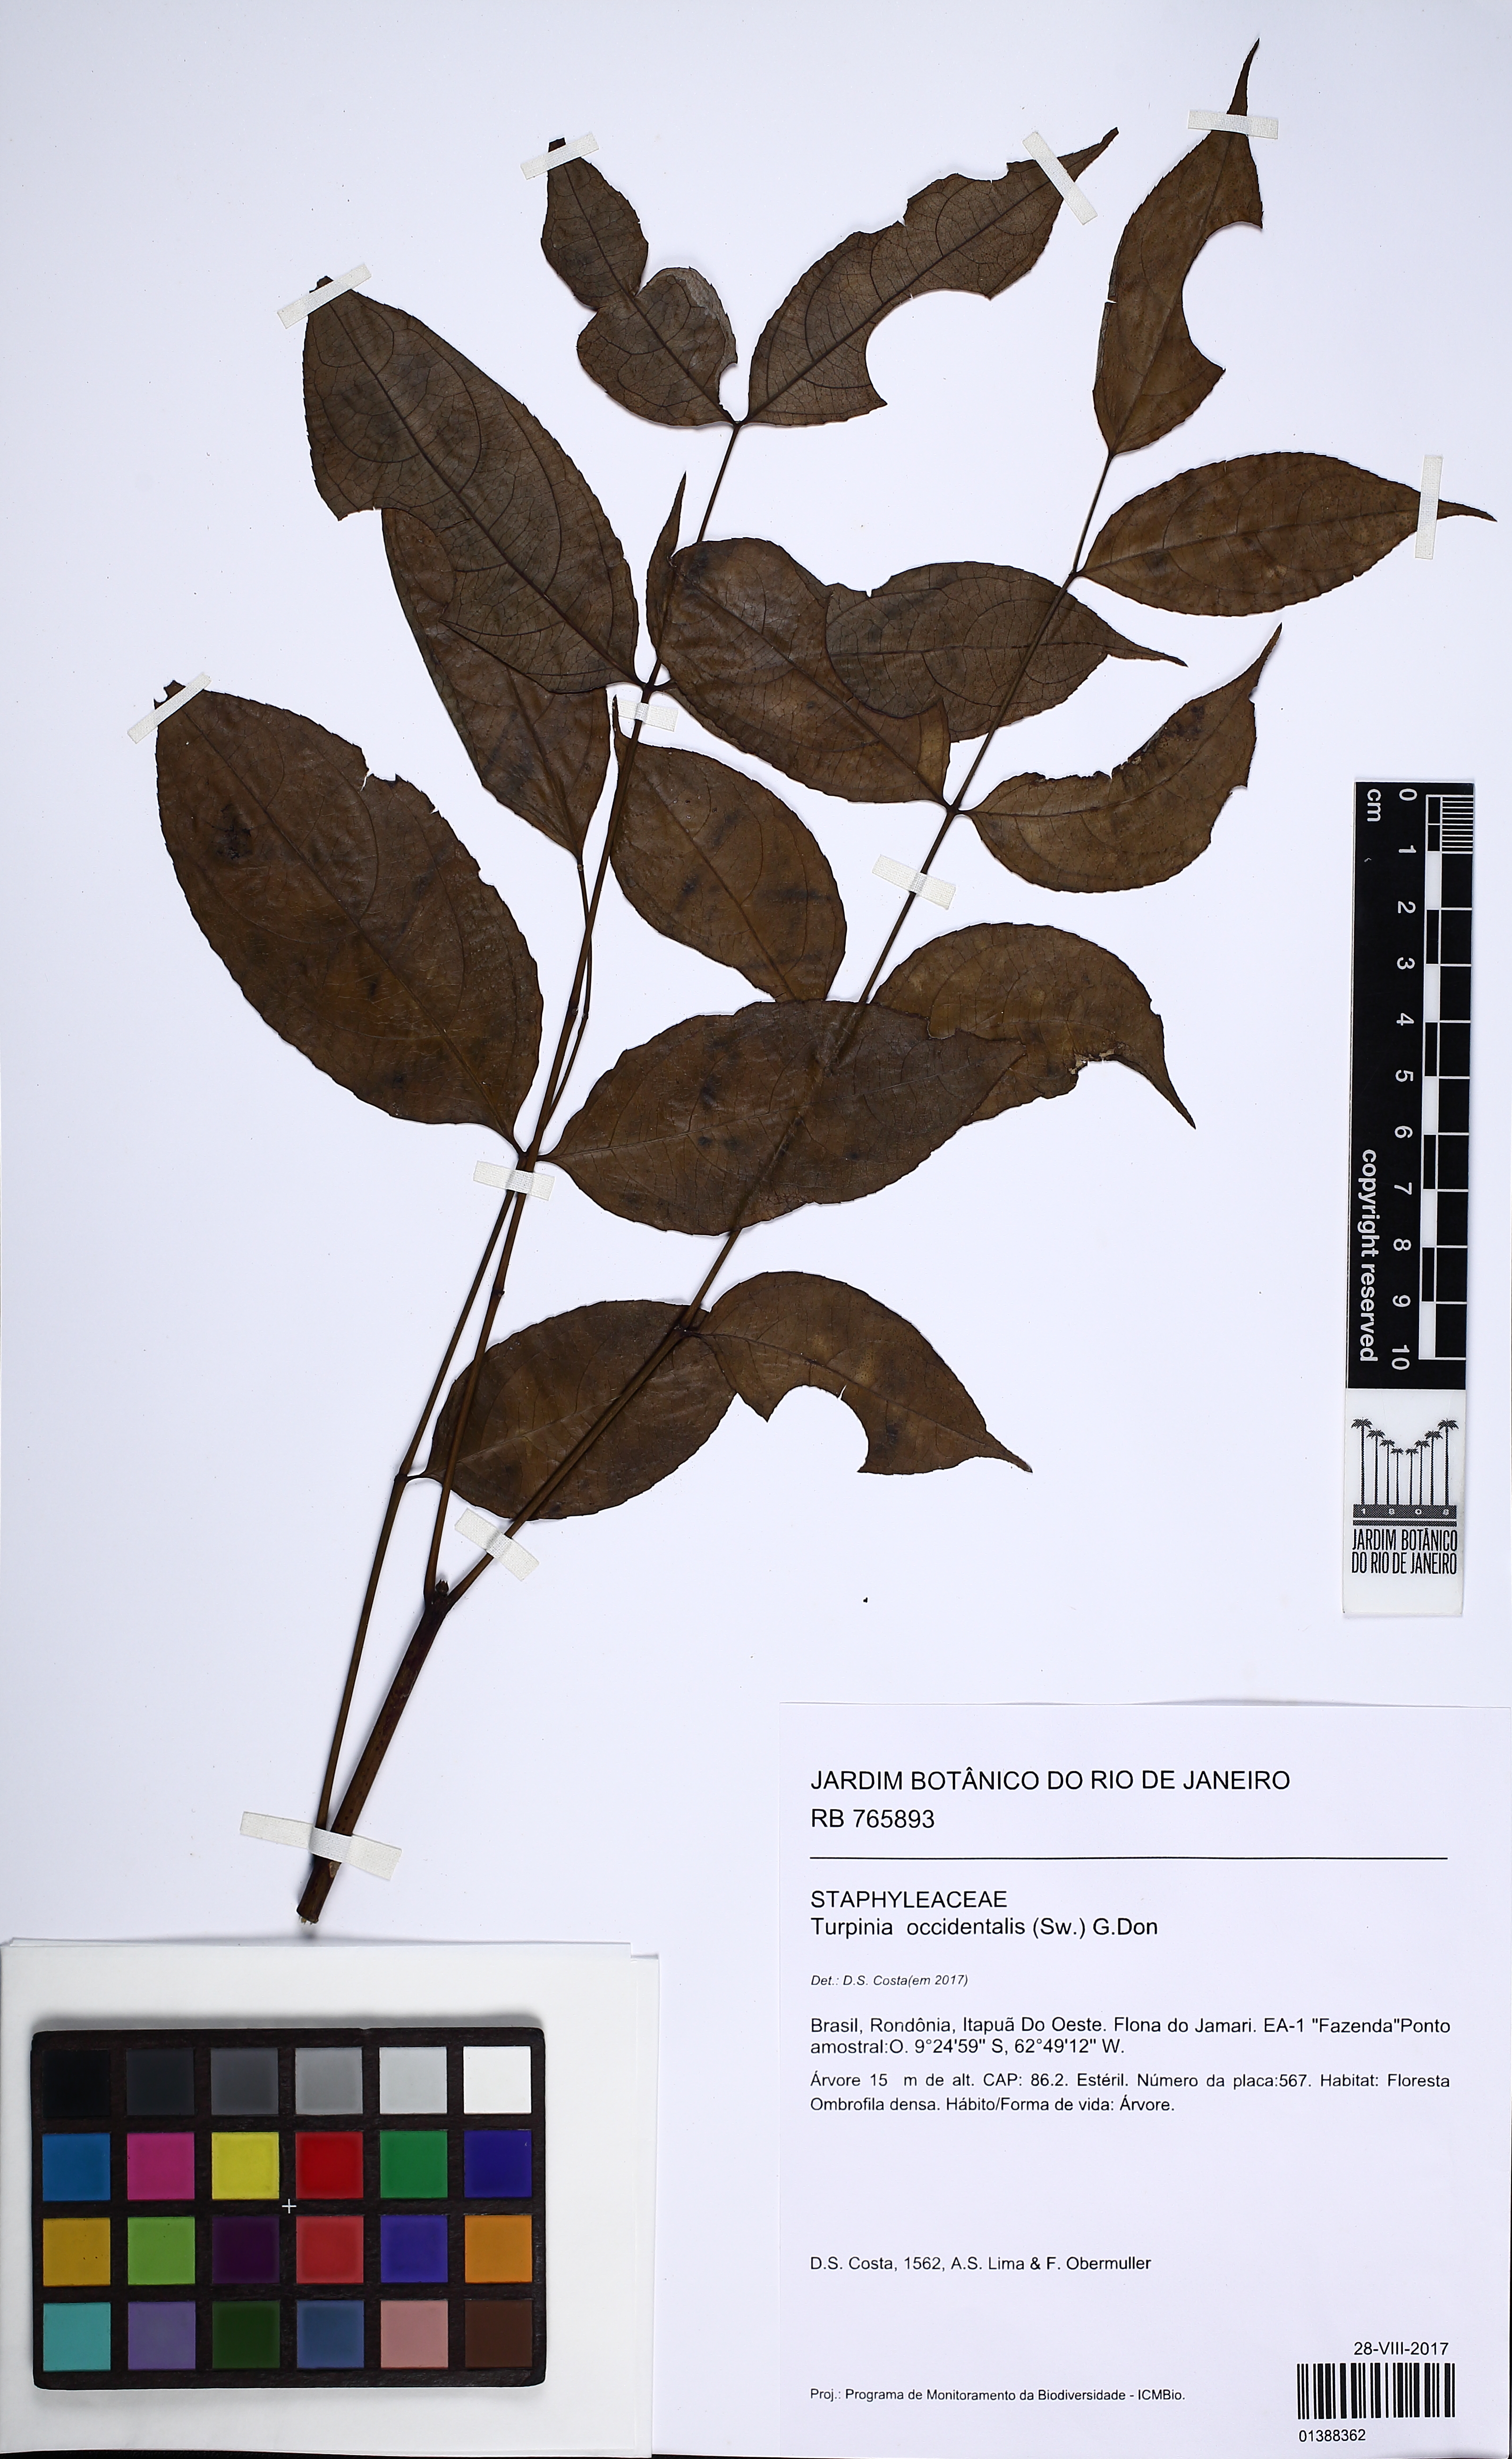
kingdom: Plantae
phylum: Tracheophyta
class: Magnoliopsida
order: Crossosomatales
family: Staphyleaceae
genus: Turpinia
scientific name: Turpinia occidentalis
